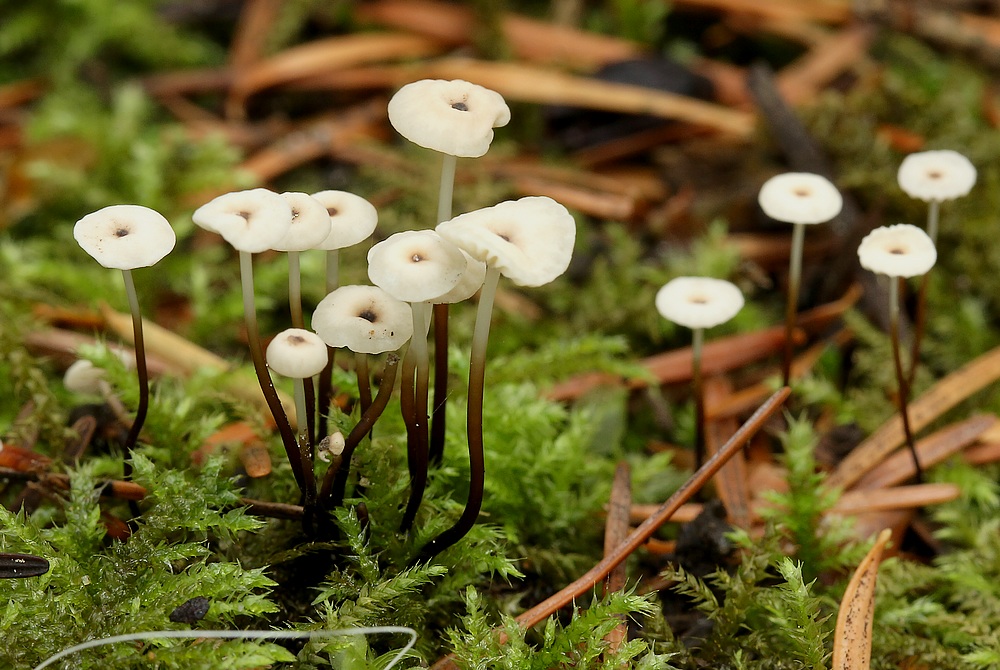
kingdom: Fungi
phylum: Basidiomycota
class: Agaricomycetes
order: Agaricales
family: Marasmiaceae
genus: Marasmius
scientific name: Marasmius wettsteinii
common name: Wettsteins bruskhat
